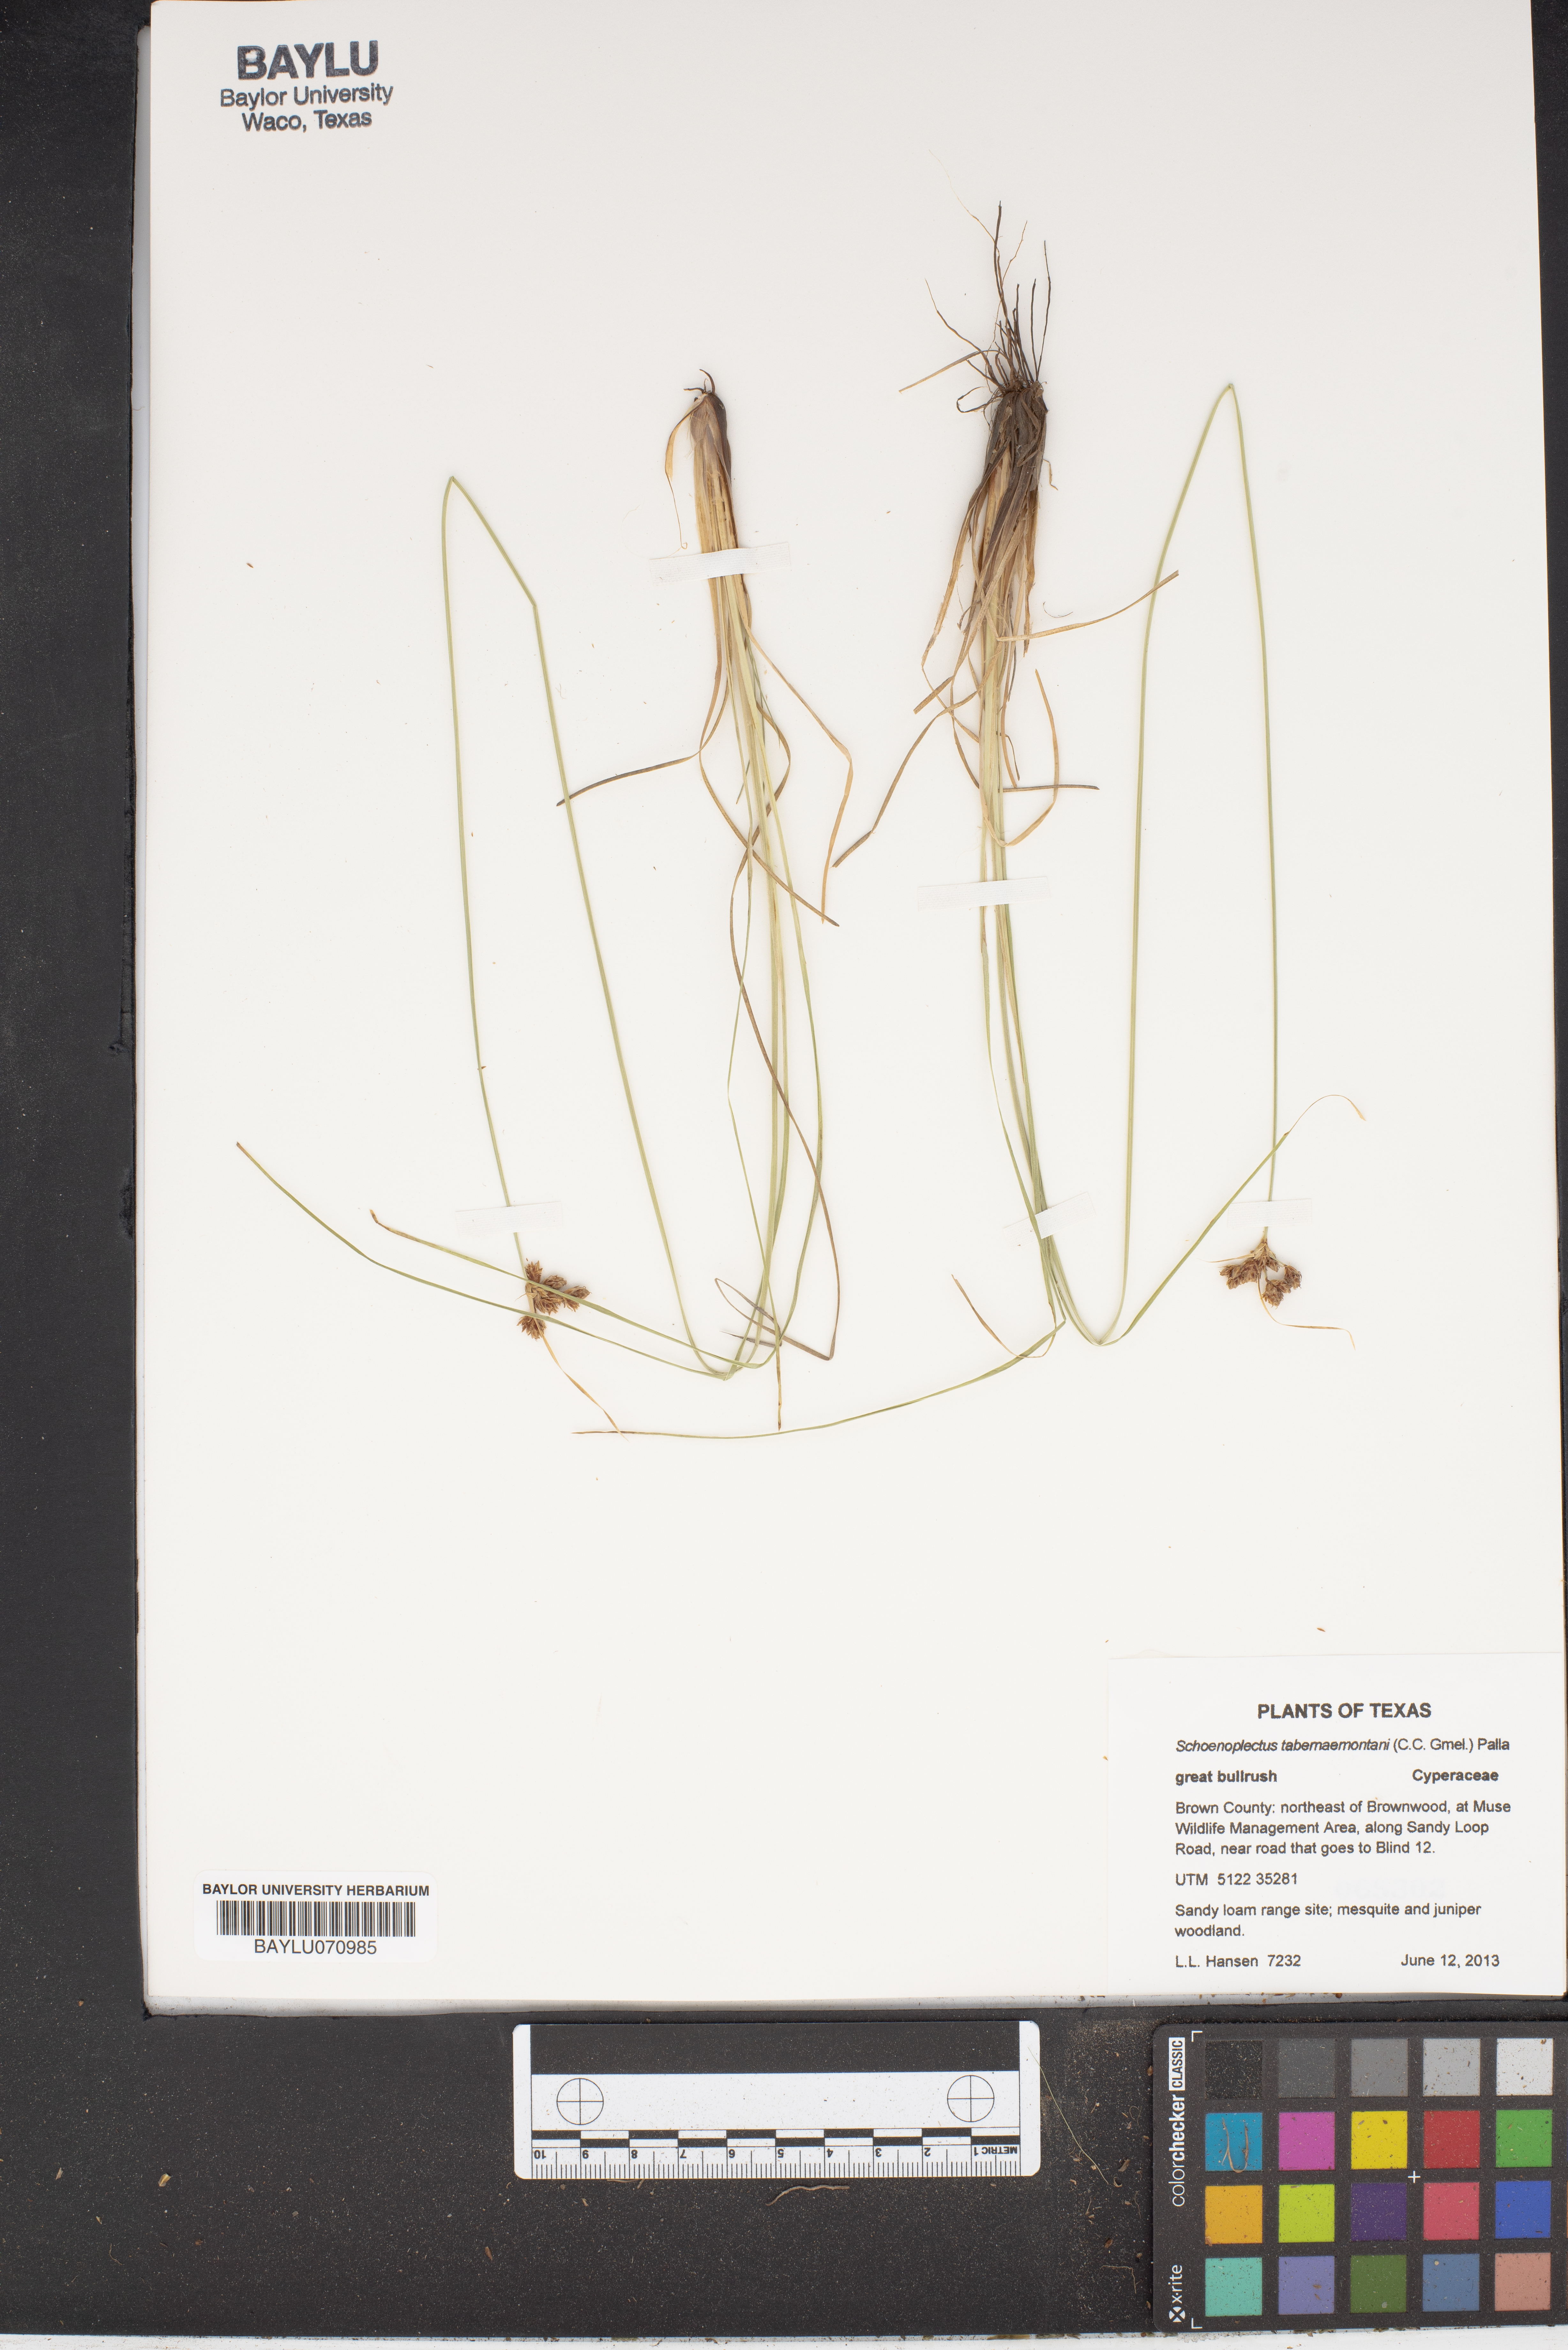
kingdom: Plantae
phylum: Tracheophyta
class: Liliopsida
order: Poales
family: Cyperaceae
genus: Schoenoplectus
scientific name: Schoenoplectus tabernaemontani
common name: Grey club-rush
